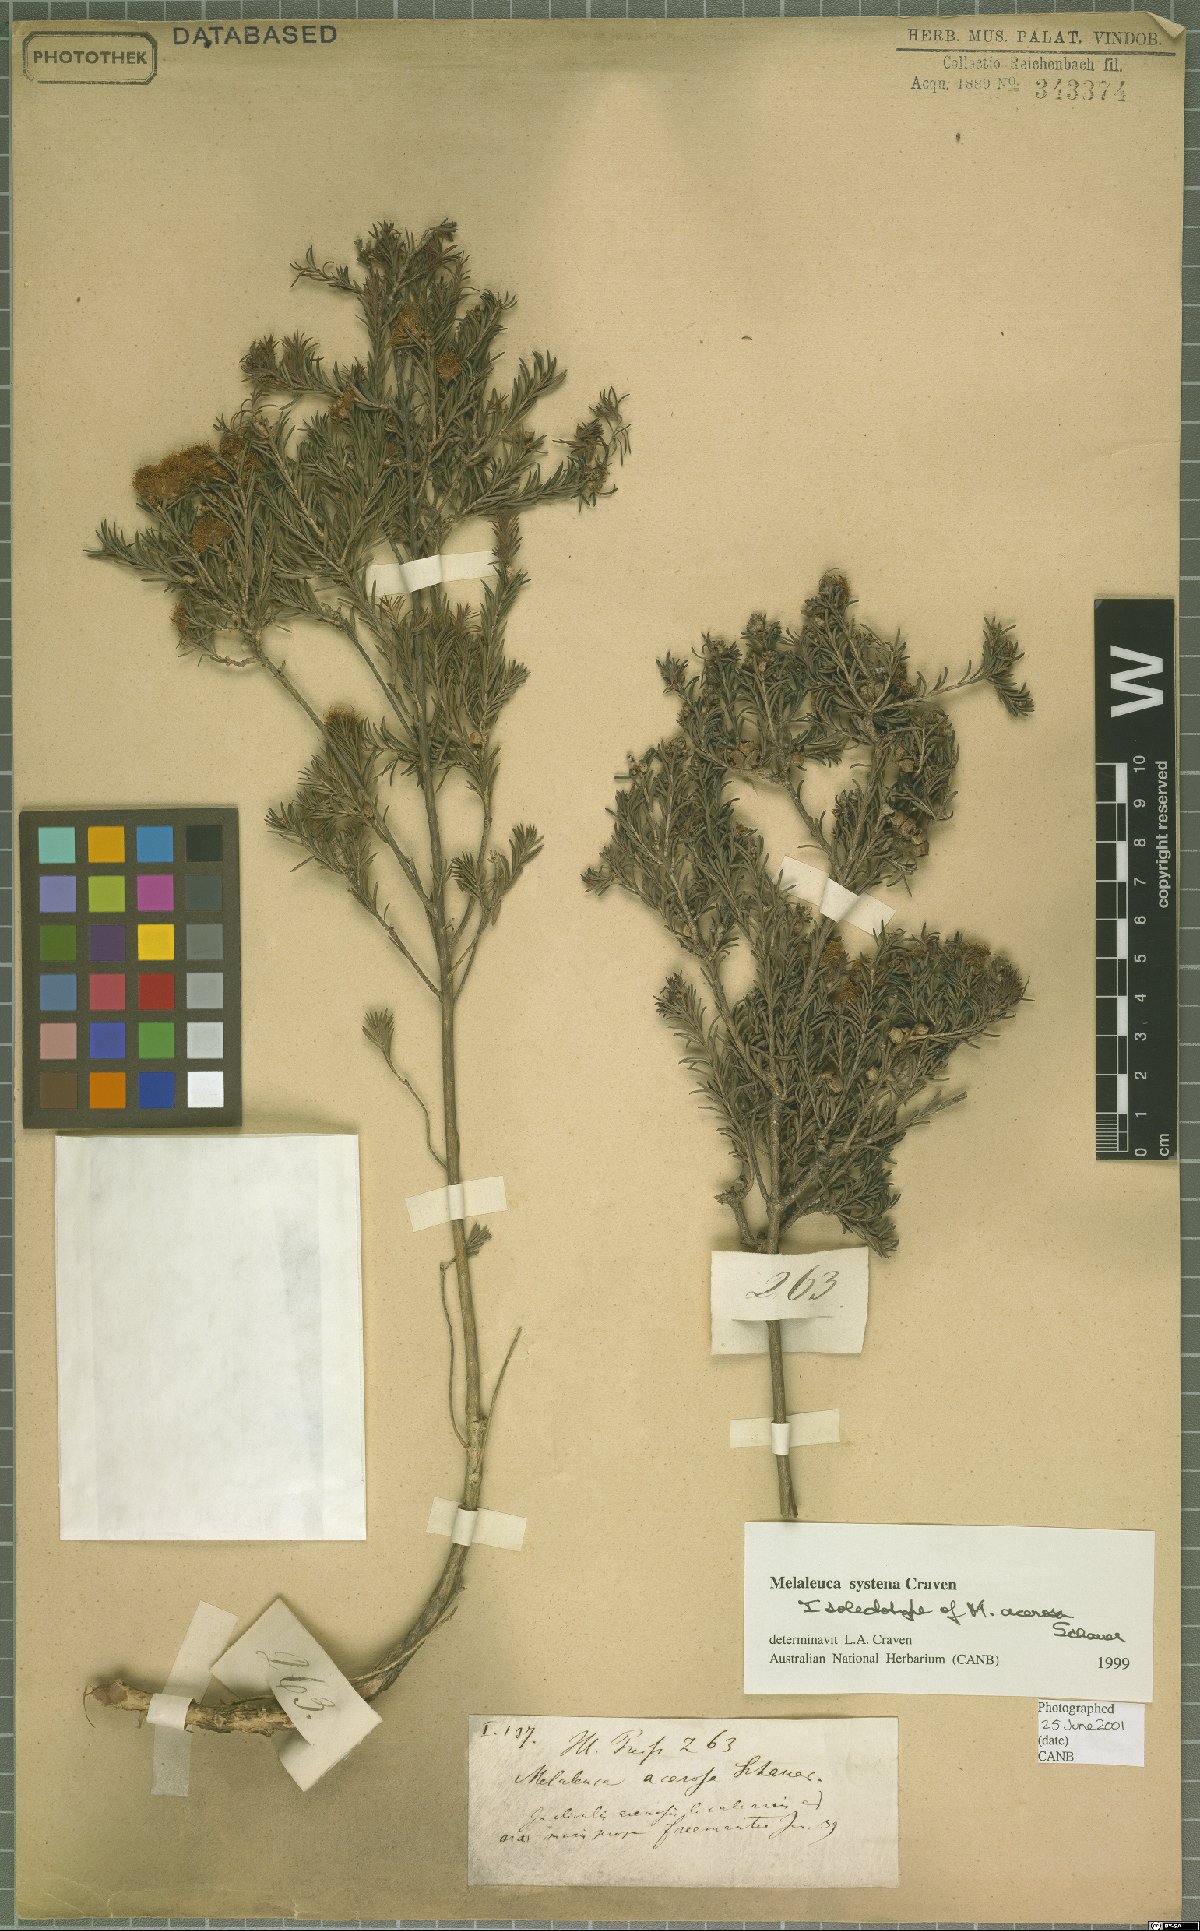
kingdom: Plantae
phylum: Tracheophyta
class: Magnoliopsida
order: Myrtales
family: Myrtaceae
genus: Melaleuca
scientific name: Melaleuca systena
